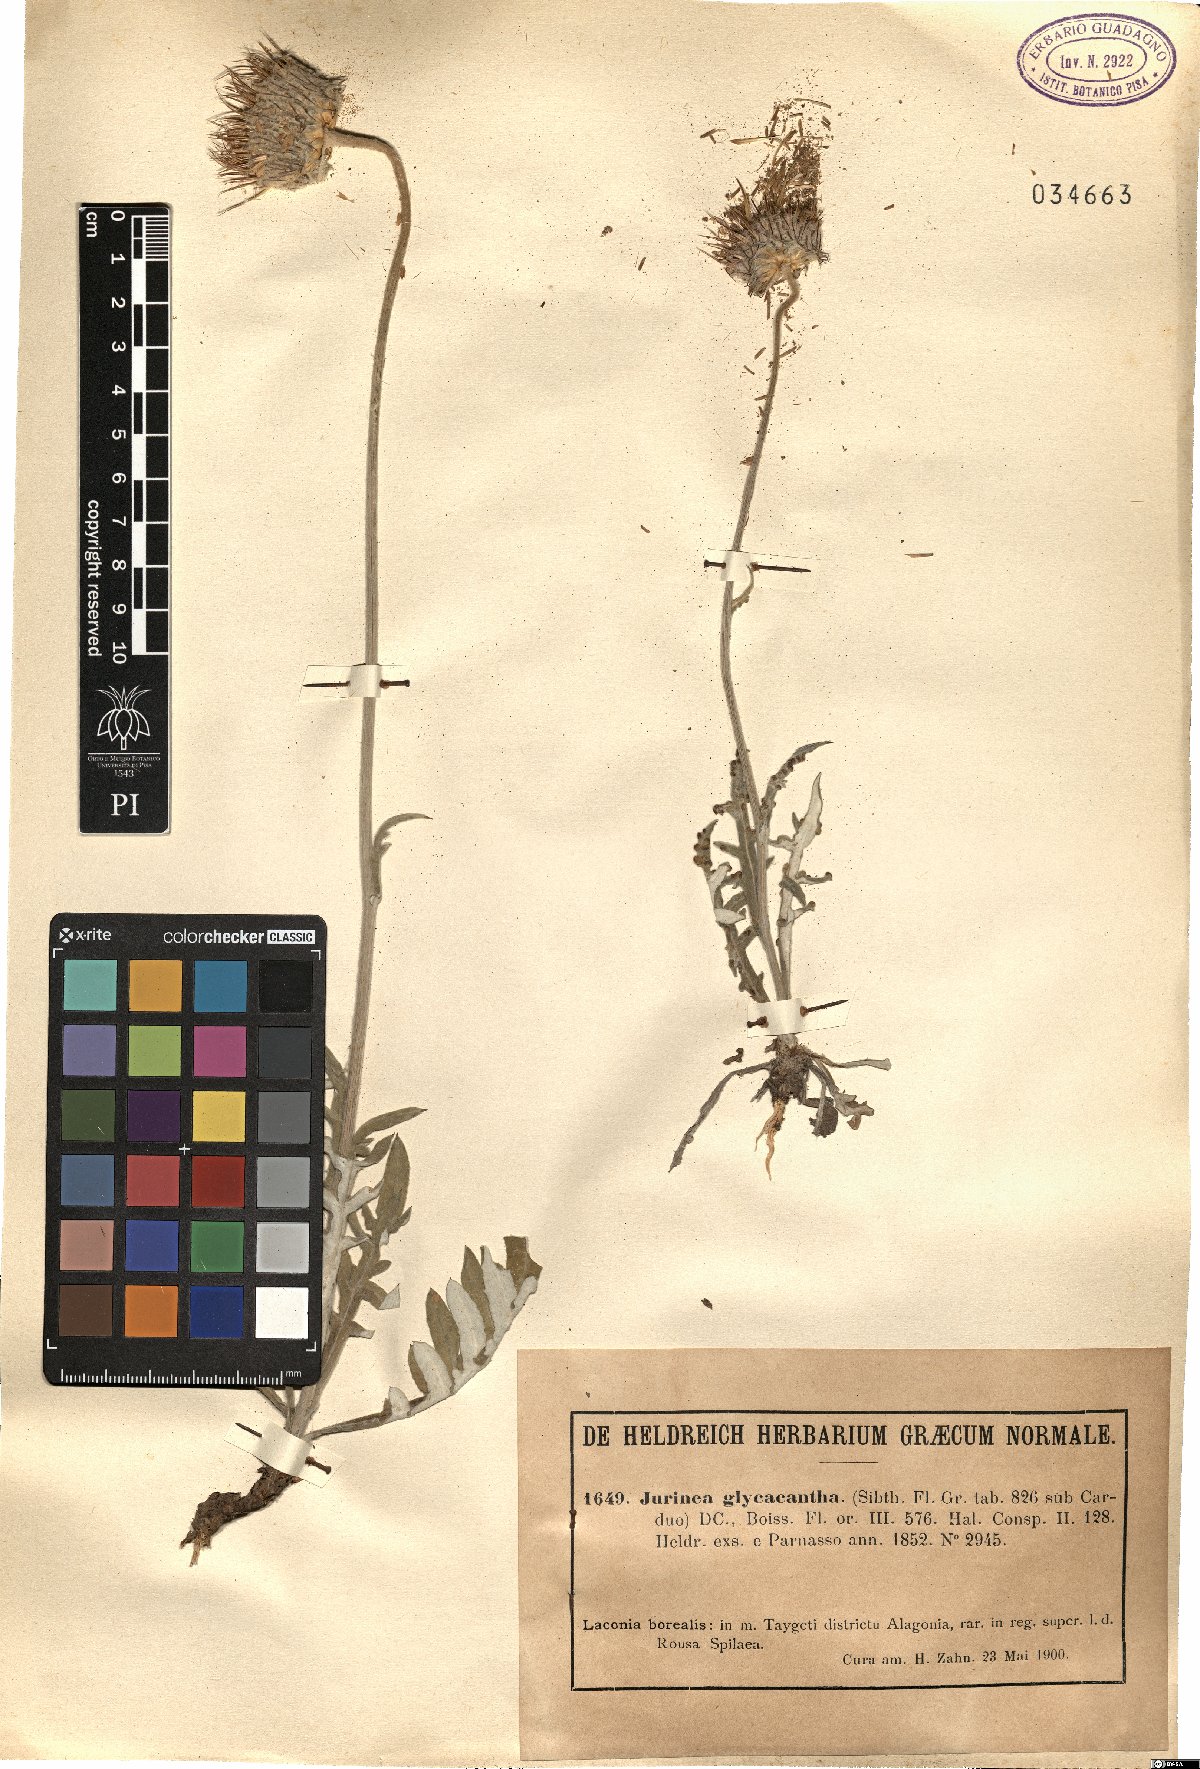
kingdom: Plantae
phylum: Tracheophyta
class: Magnoliopsida
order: Asterales
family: Asteraceae
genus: Jurinea
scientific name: Jurinea glycacantha
